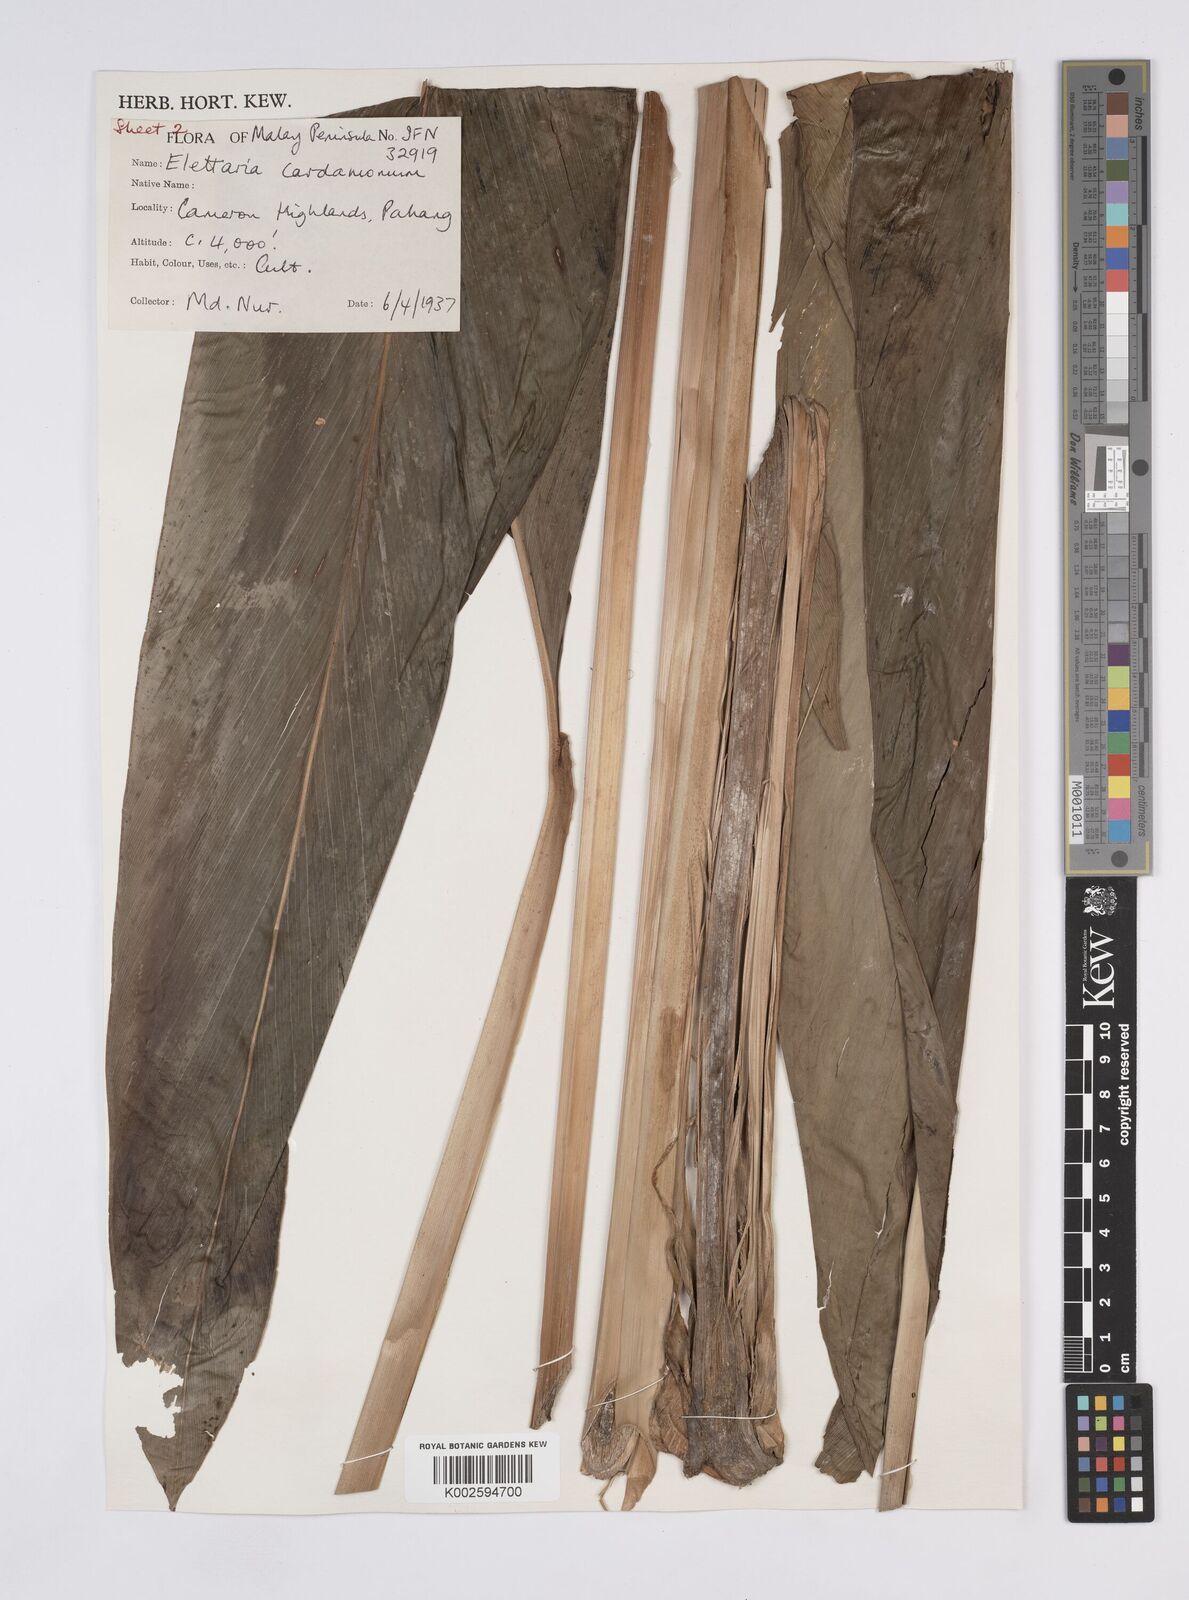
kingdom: Plantae
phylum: Tracheophyta
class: Liliopsida
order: Zingiberales
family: Zingiberaceae
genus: Elettaria
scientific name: Elettaria cardamomum
